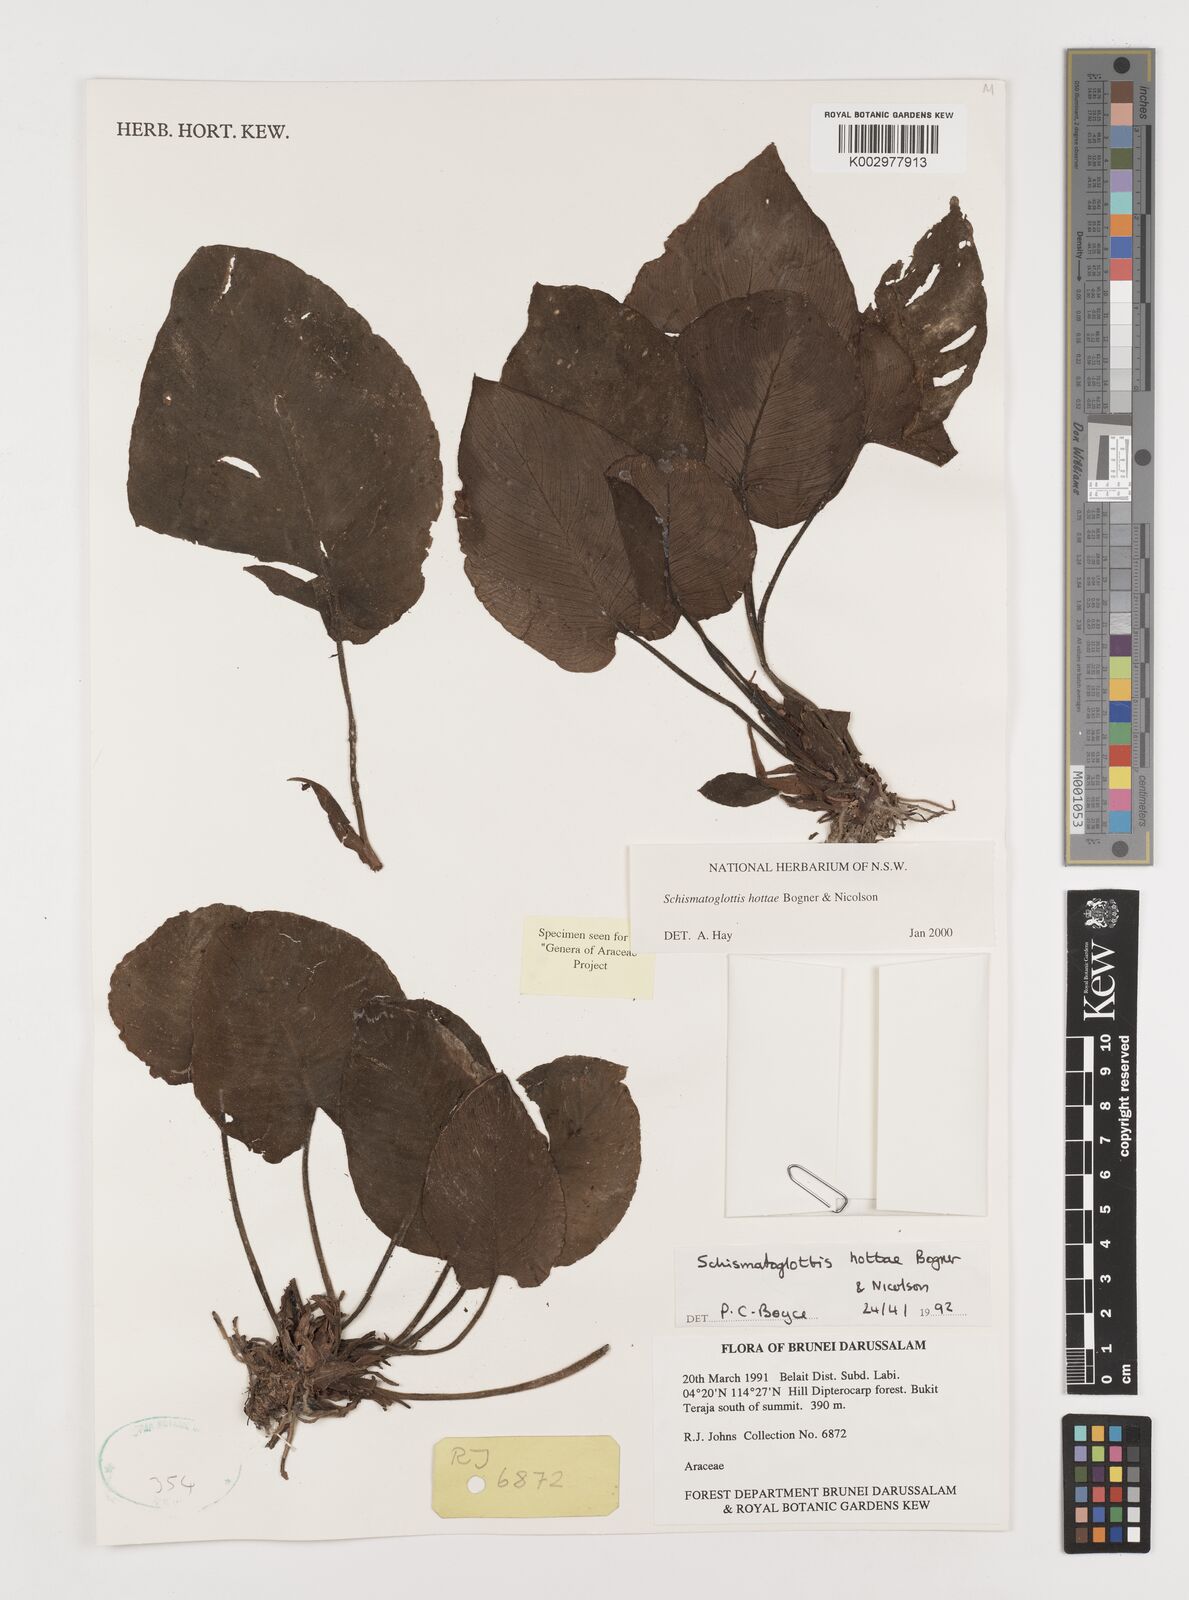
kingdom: Plantae
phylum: Tracheophyta
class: Liliopsida
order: Alismatales
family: Araceae
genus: Schismatoglottis
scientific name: Schismatoglottis hottae
